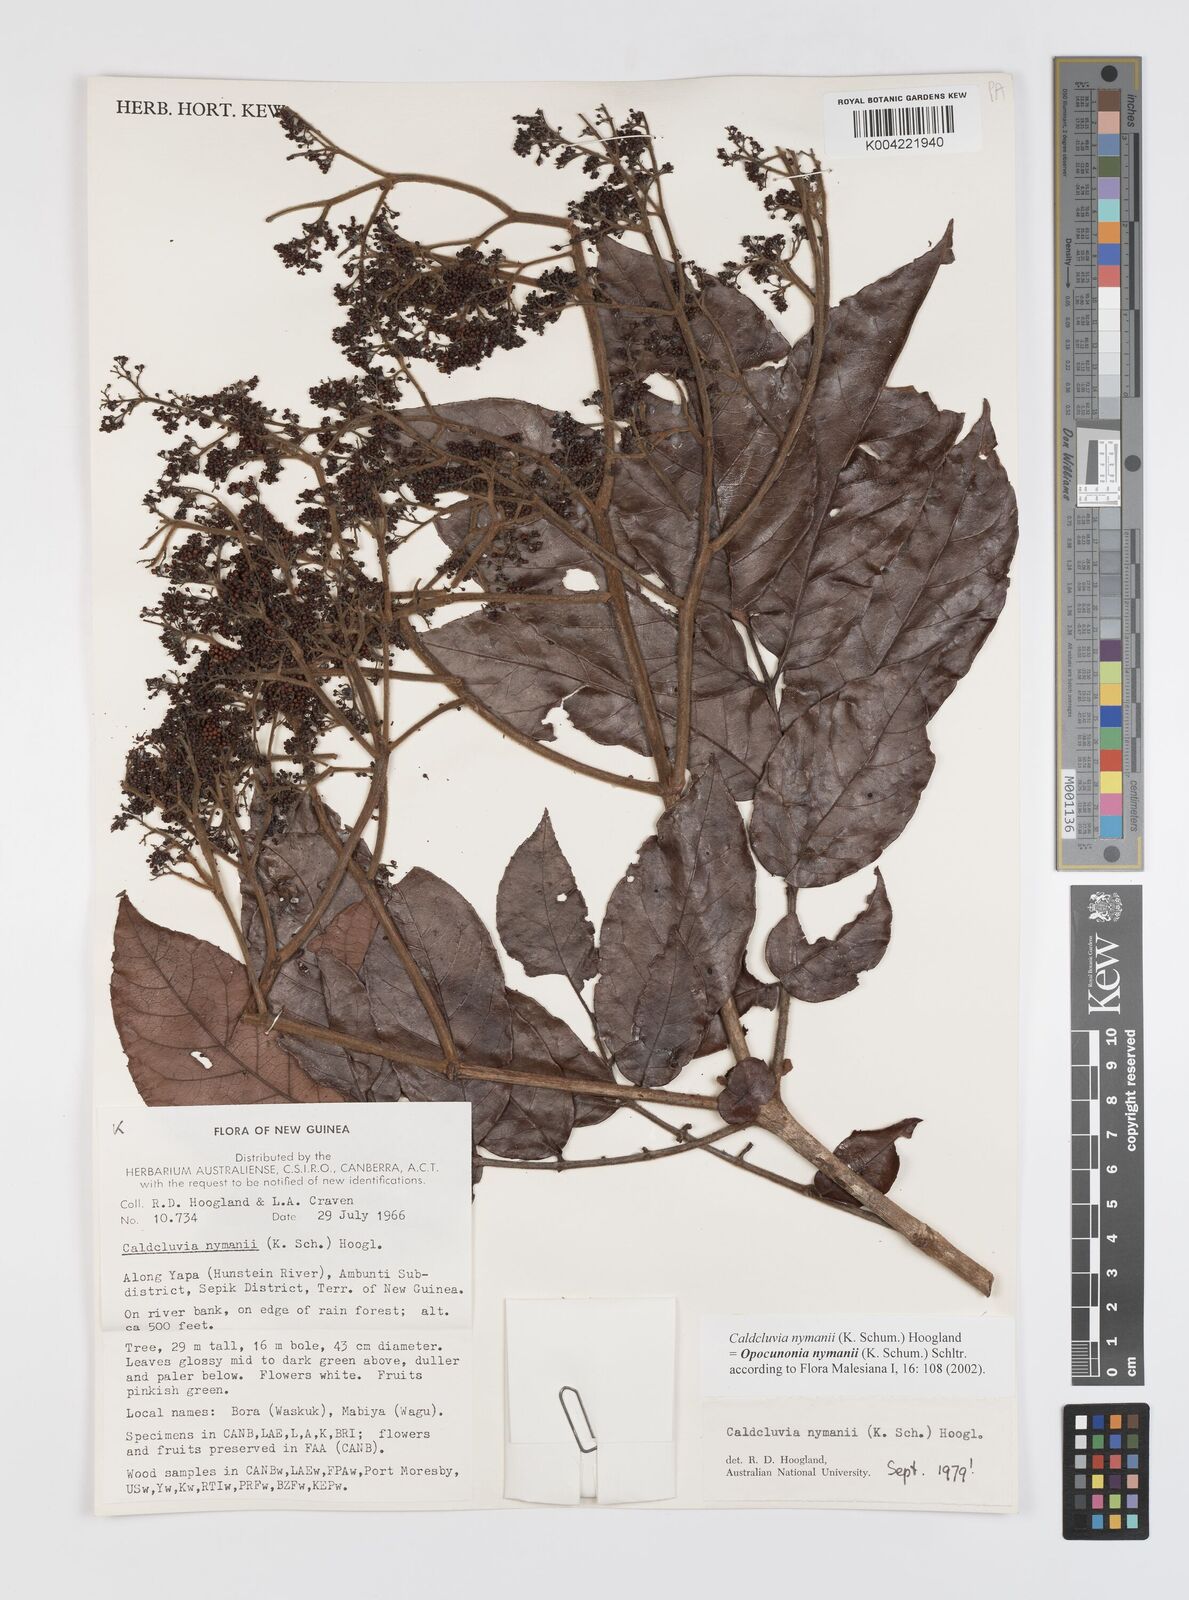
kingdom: Plantae
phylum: Tracheophyta
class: Magnoliopsida
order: Oxalidales
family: Cunoniaceae
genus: Opocunonia
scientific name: Opocunonia nymanii
